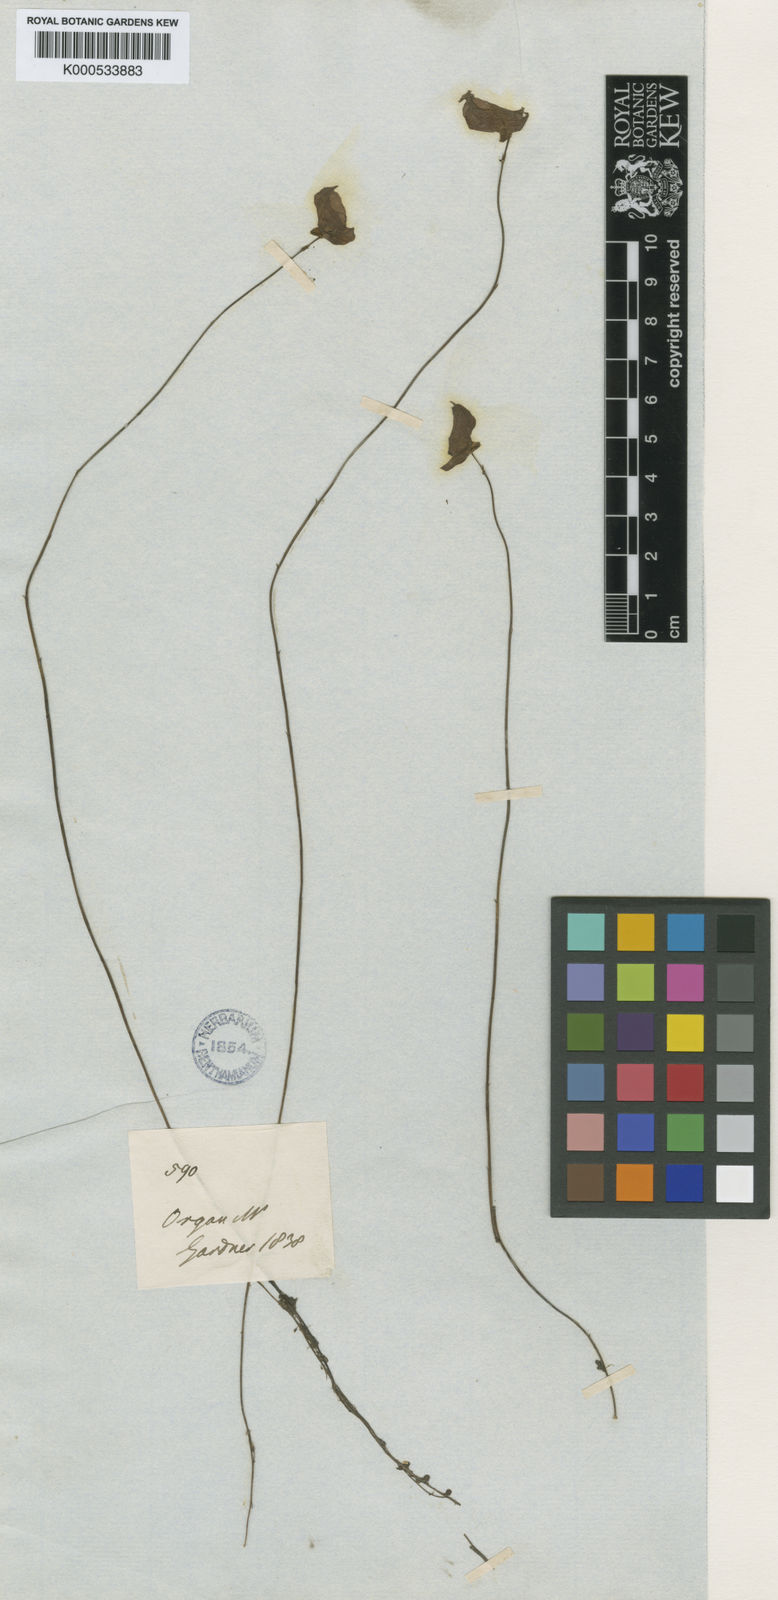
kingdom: Plantae
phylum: Tracheophyta
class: Magnoliopsida
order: Lamiales
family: Lentibulariaceae
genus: Utricularia
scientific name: Utricularia tricolor
